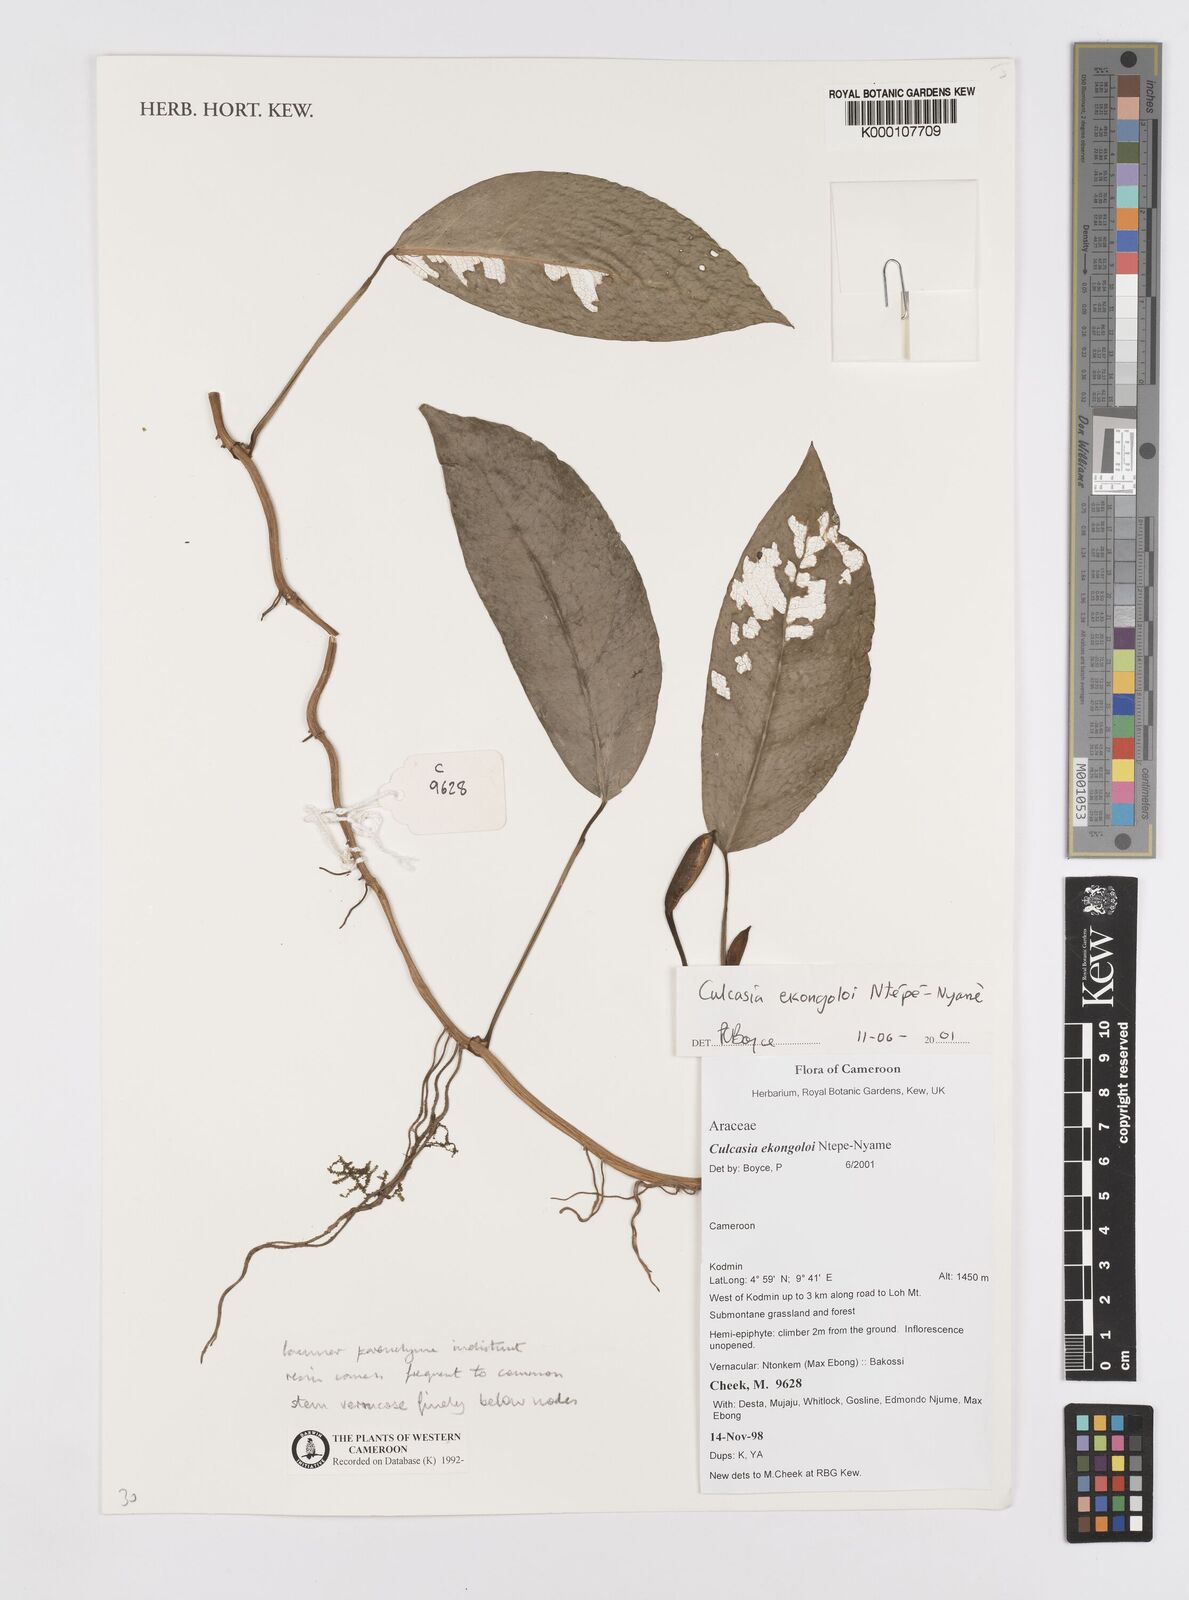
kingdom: Plantae
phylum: Tracheophyta
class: Liliopsida
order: Alismatales
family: Araceae
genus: Culcasia
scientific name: Culcasia ekongoloi
